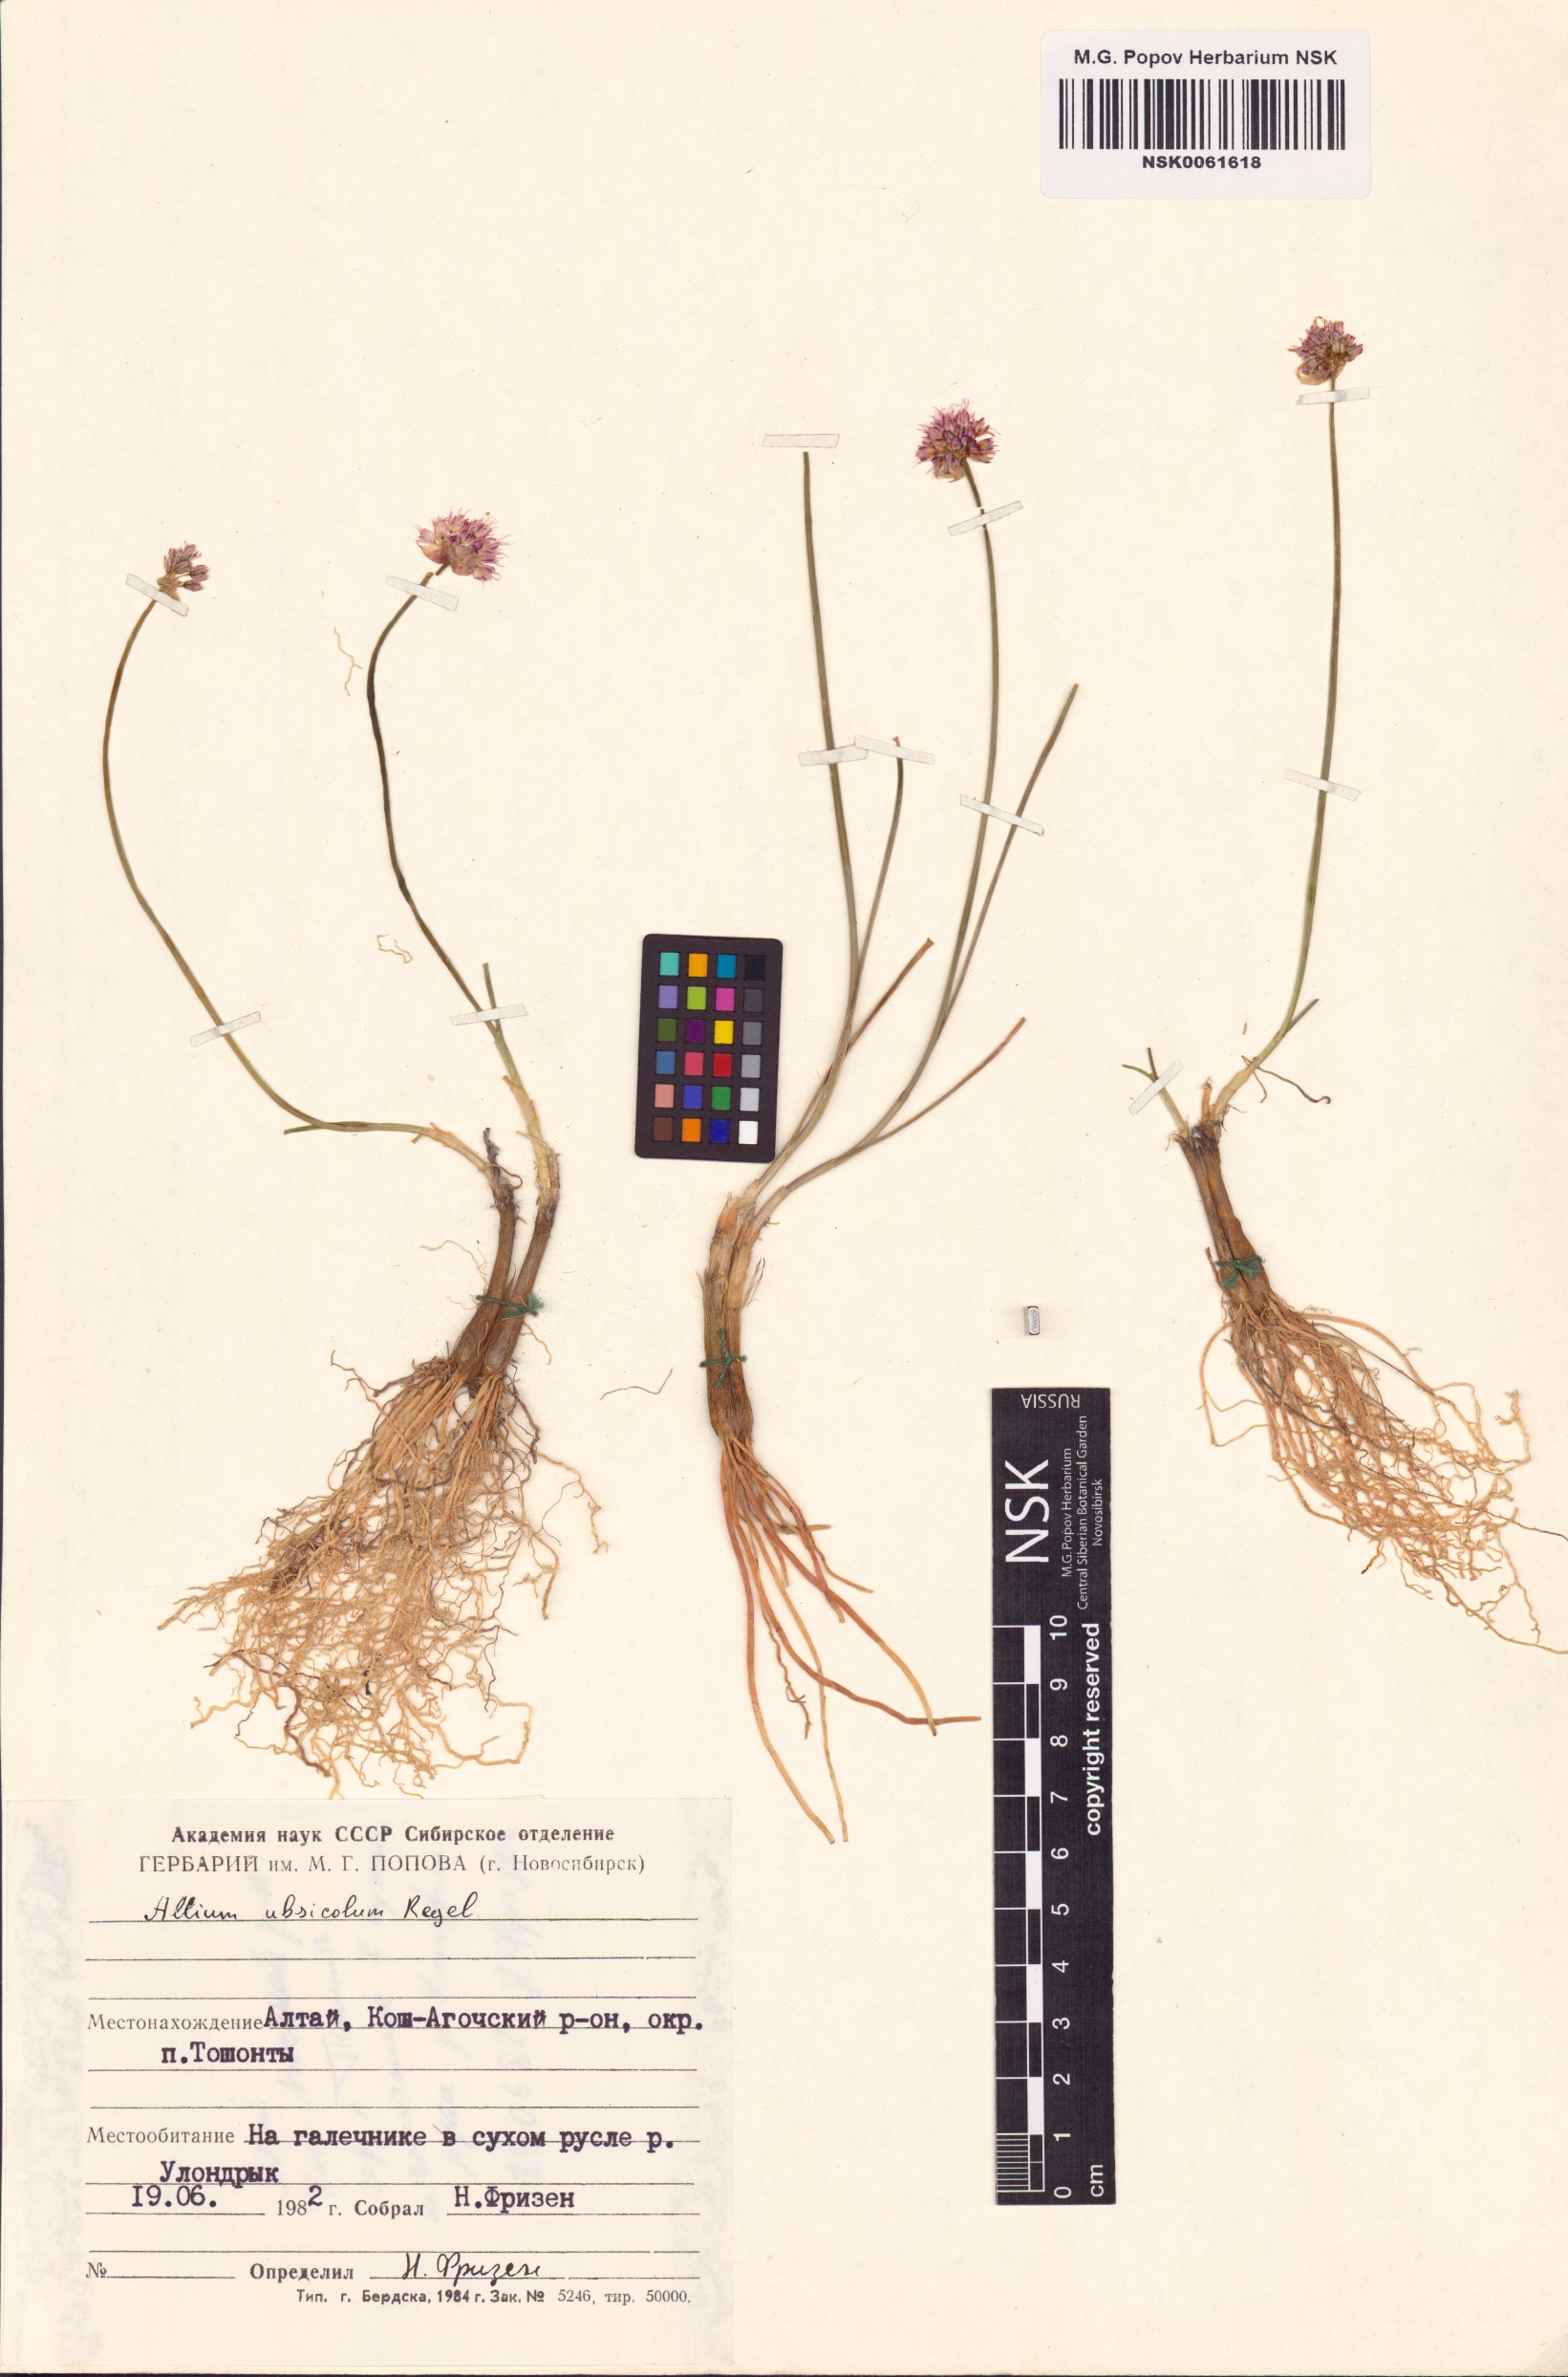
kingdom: Plantae
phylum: Tracheophyta
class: Liliopsida
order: Asparagales
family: Amaryllidaceae
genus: Allium
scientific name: Allium ubsicola
